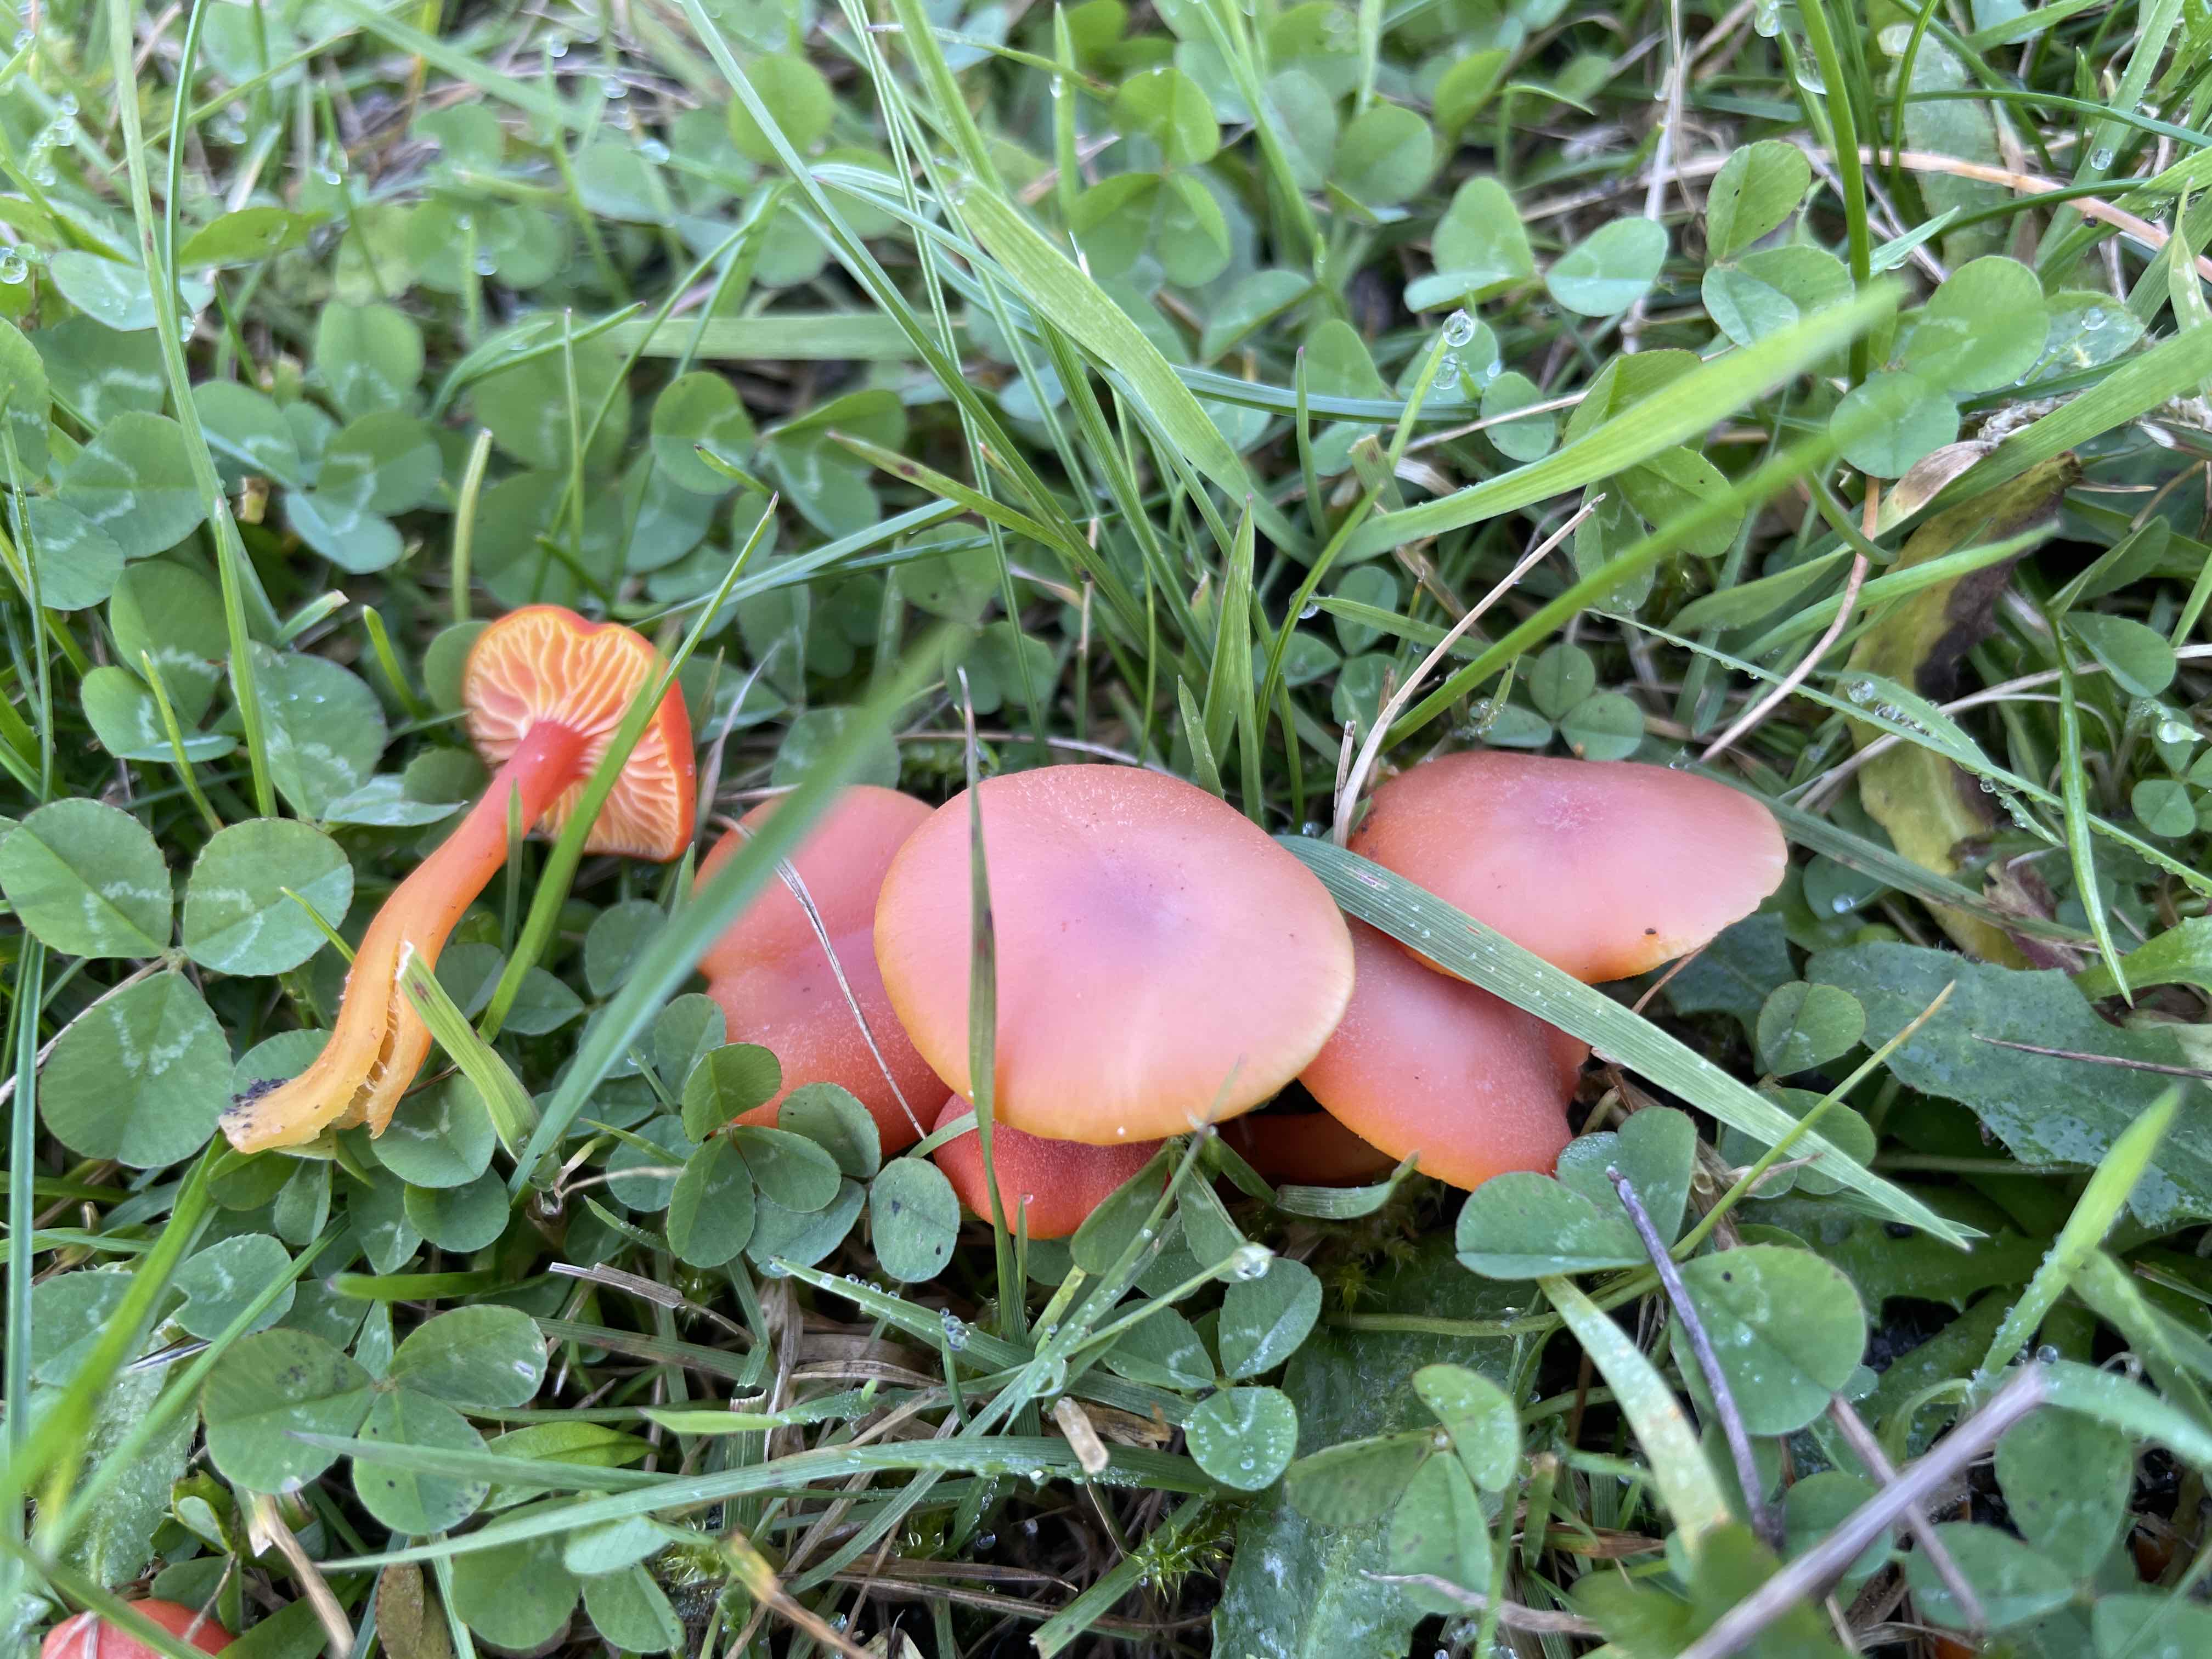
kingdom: Fungi
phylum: Basidiomycota
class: Agaricomycetes
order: Agaricales
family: Hygrophoraceae
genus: Hygrocybe
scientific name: Hygrocybe miniata
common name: mønje-vokshat
